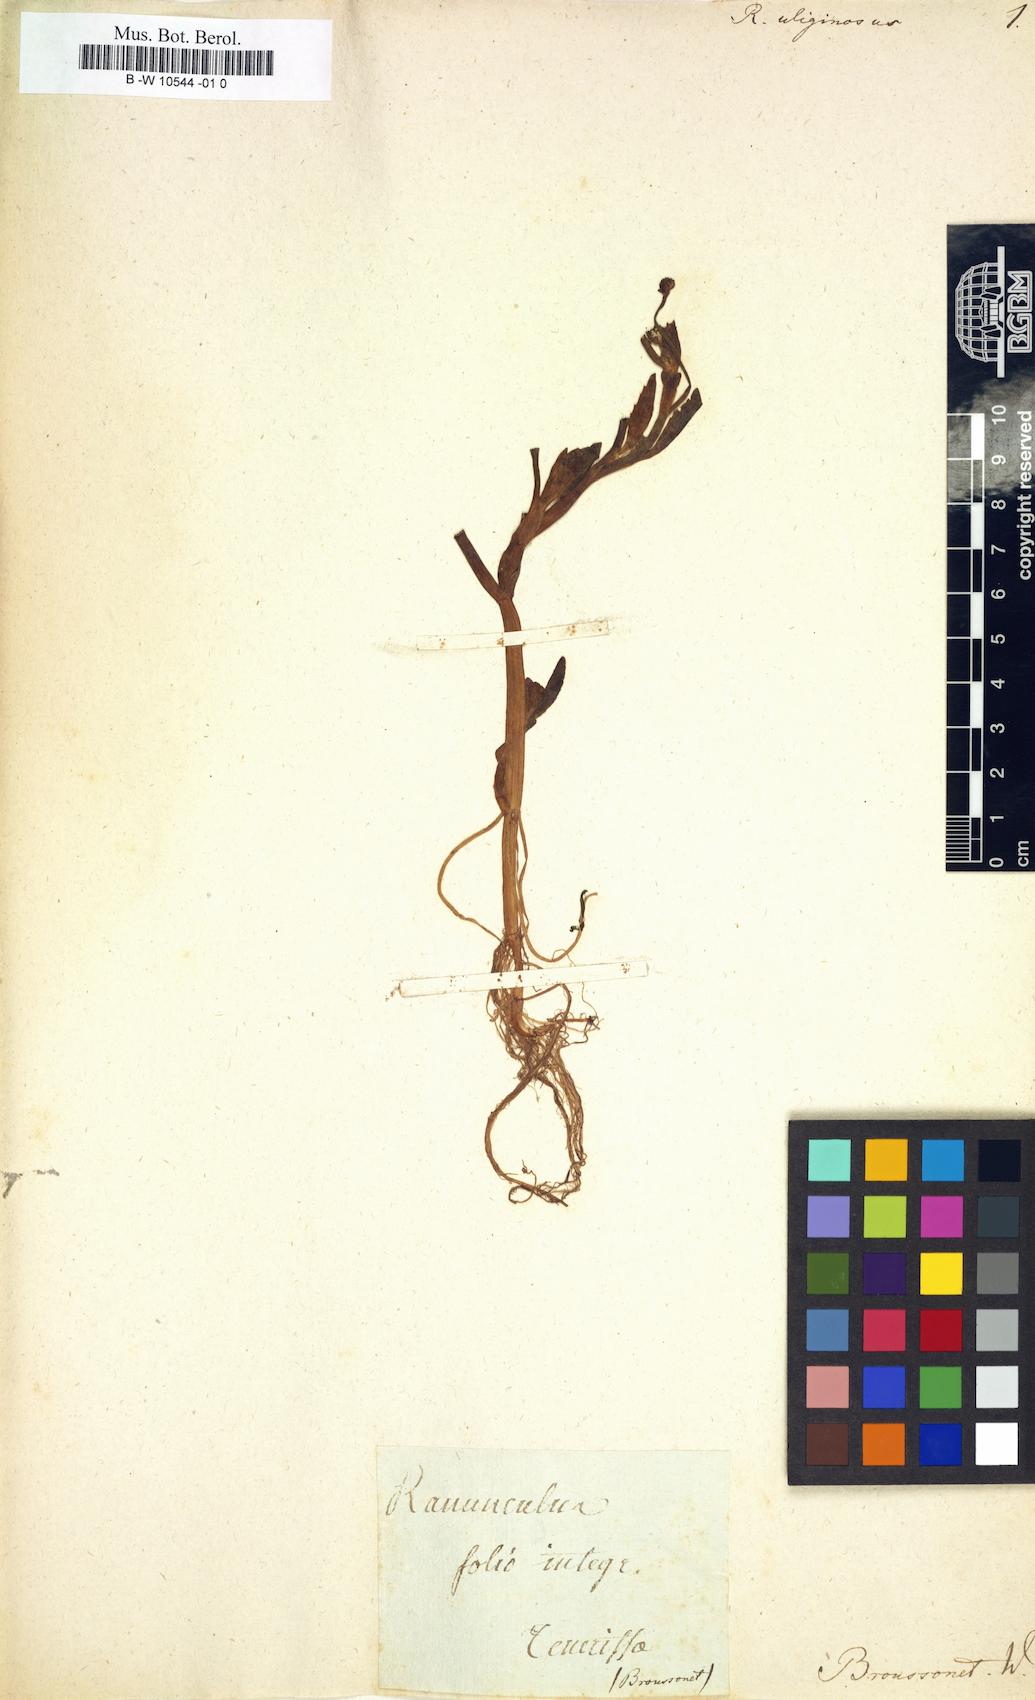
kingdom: Plantae
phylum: Tracheophyta
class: Magnoliopsida
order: Ranunculales
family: Ranunculaceae
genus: Ranunculus
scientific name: Ranunculus ophioglossifolius
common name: Adder's-tongue spearwort
